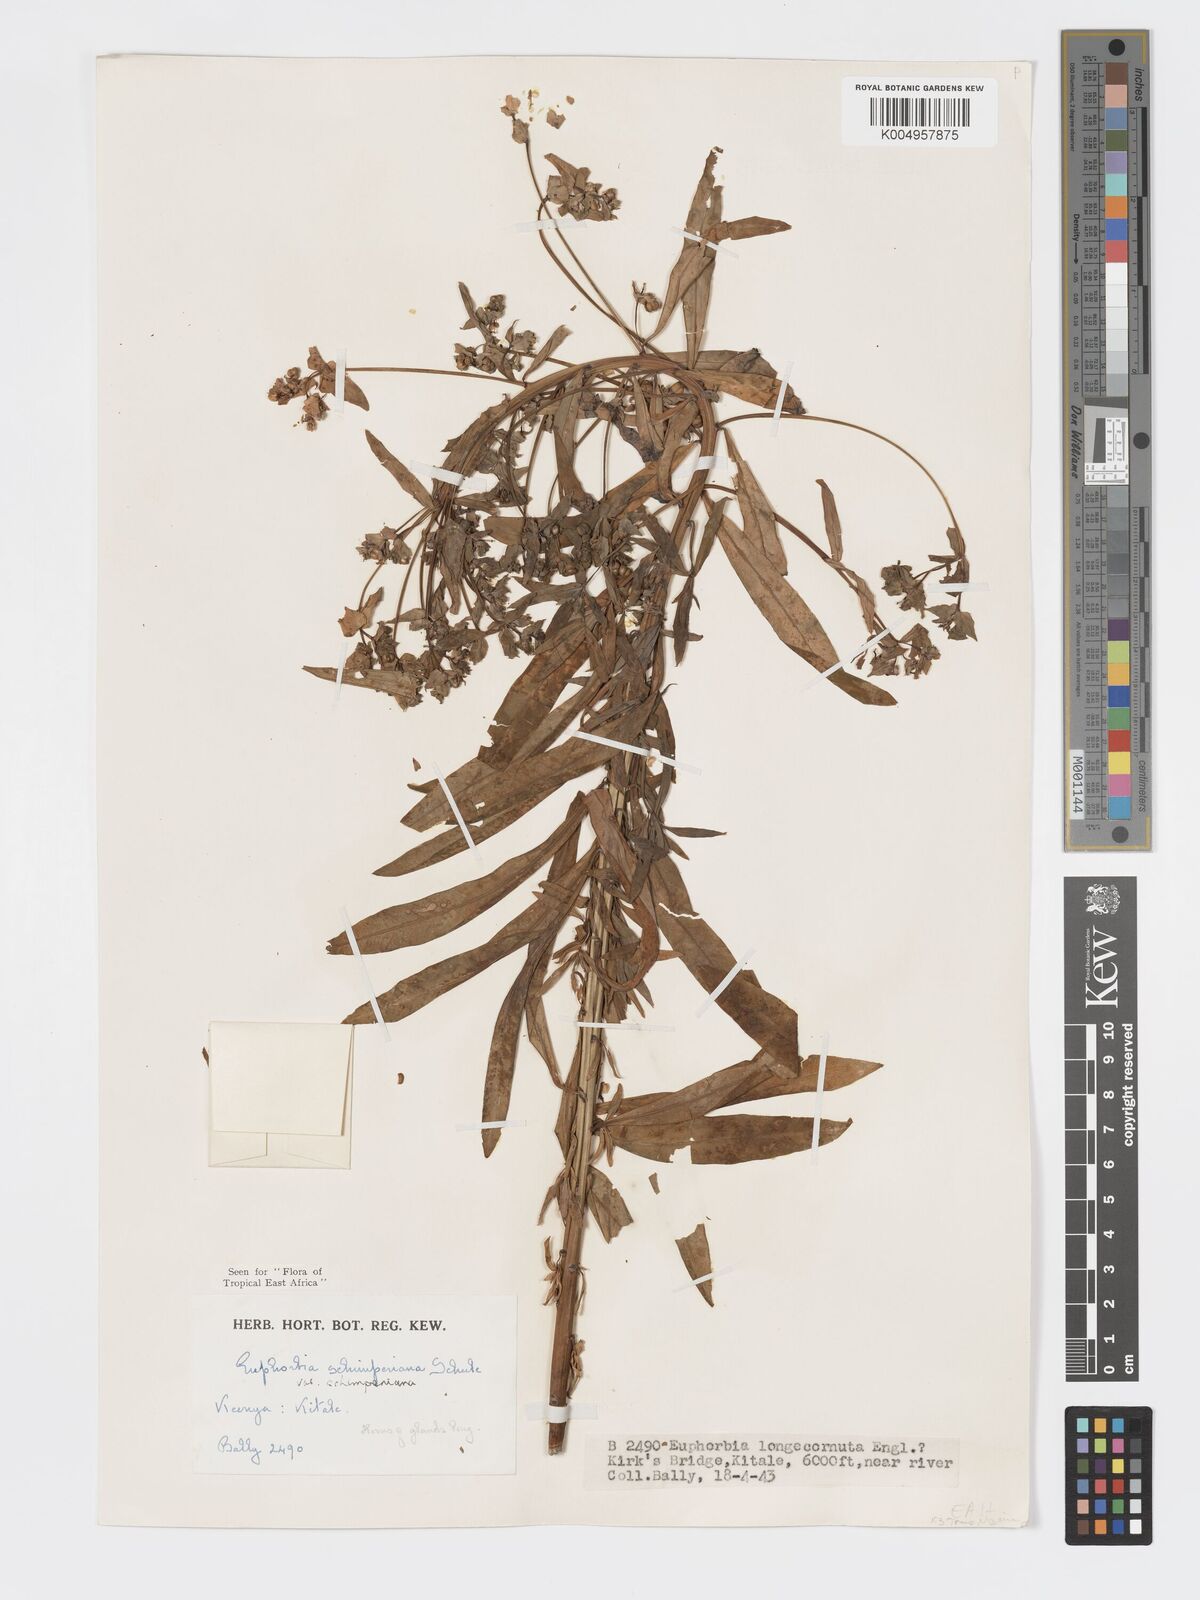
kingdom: Plantae
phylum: Tracheophyta
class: Magnoliopsida
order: Malpighiales
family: Euphorbiaceae
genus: Euphorbia
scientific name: Euphorbia schimperiana
